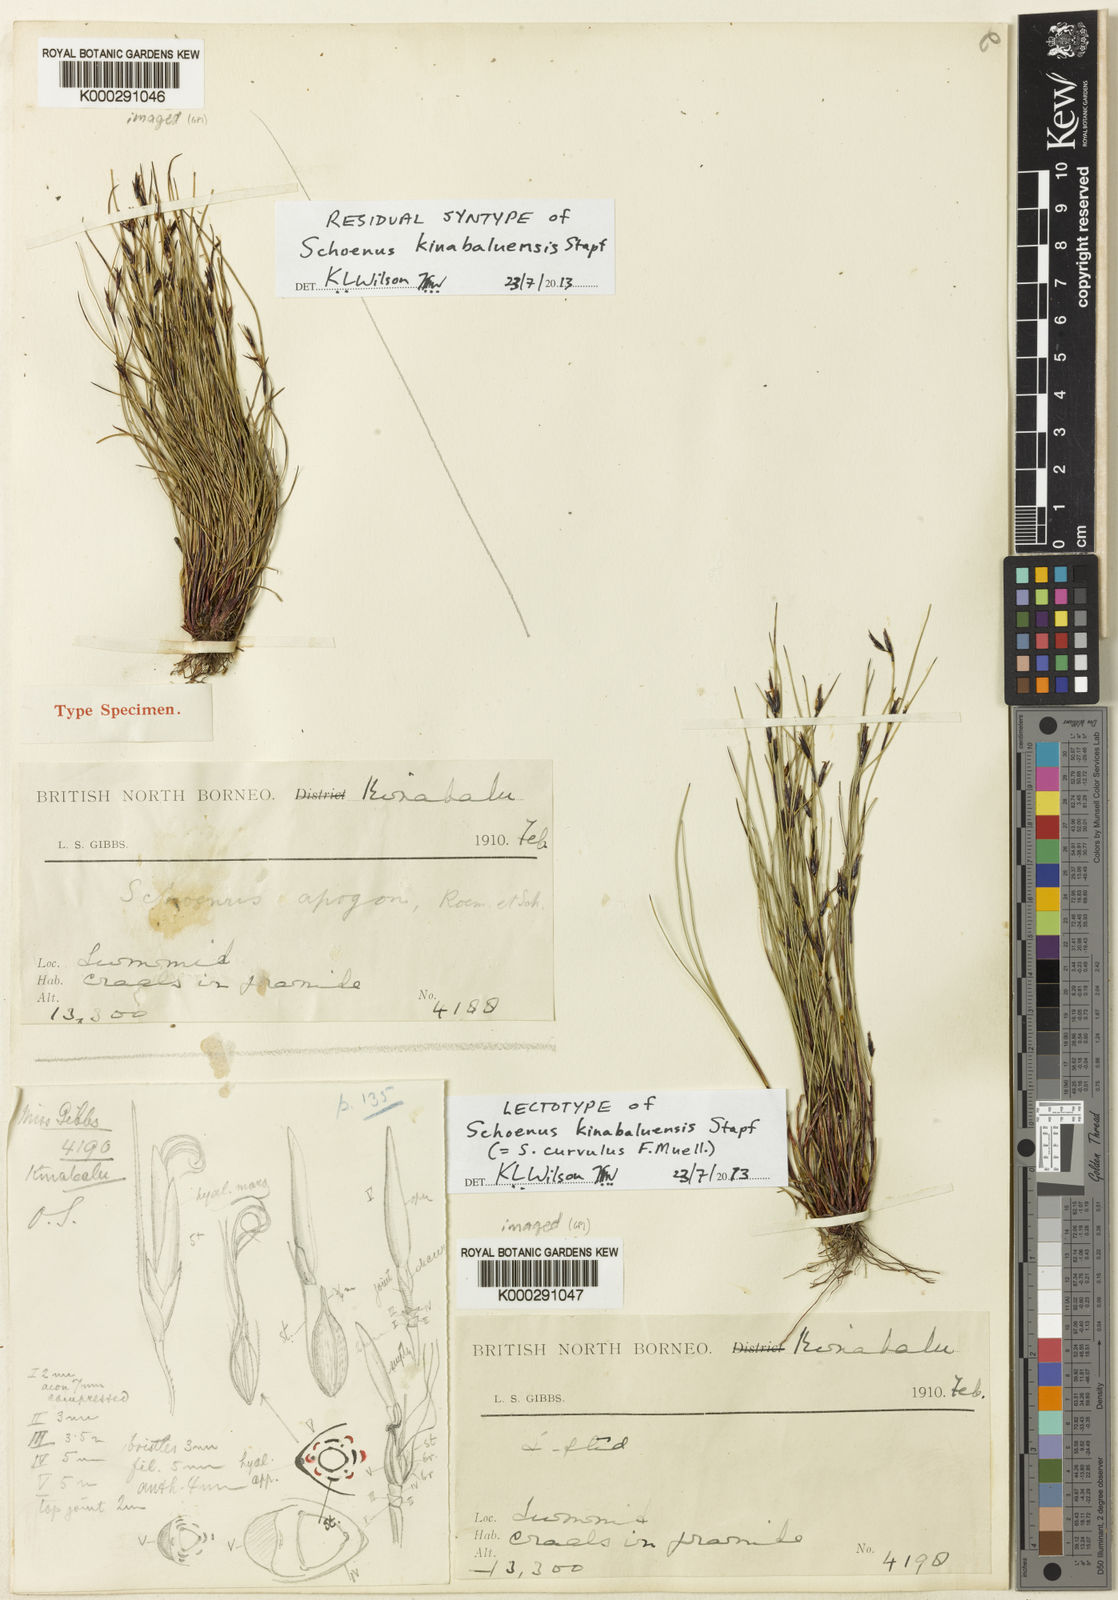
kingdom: Plantae
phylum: Tracheophyta
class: Liliopsida
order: Poales
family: Cyperaceae
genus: Schoenus
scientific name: Schoenus
